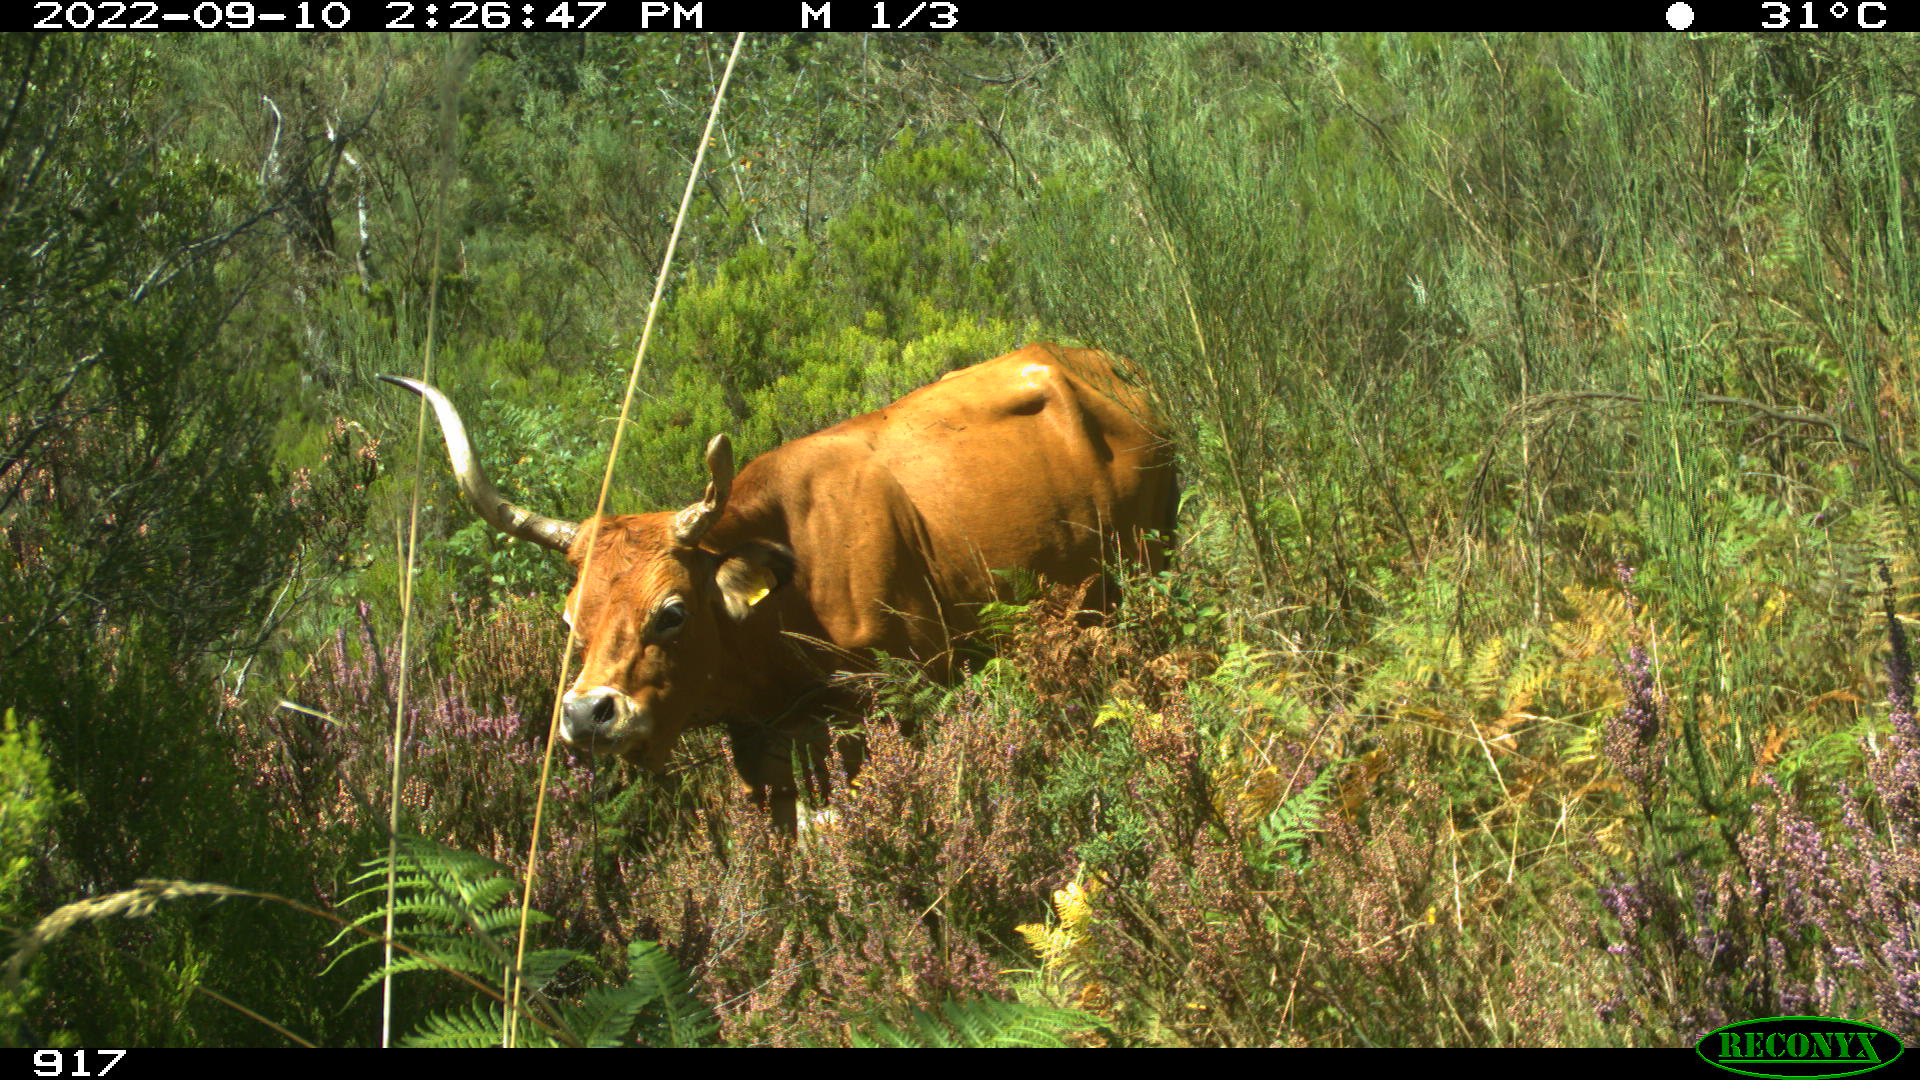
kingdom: Animalia
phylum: Chordata
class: Mammalia
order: Artiodactyla
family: Bovidae
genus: Bos
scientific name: Bos taurus
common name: Domesticated cattle
